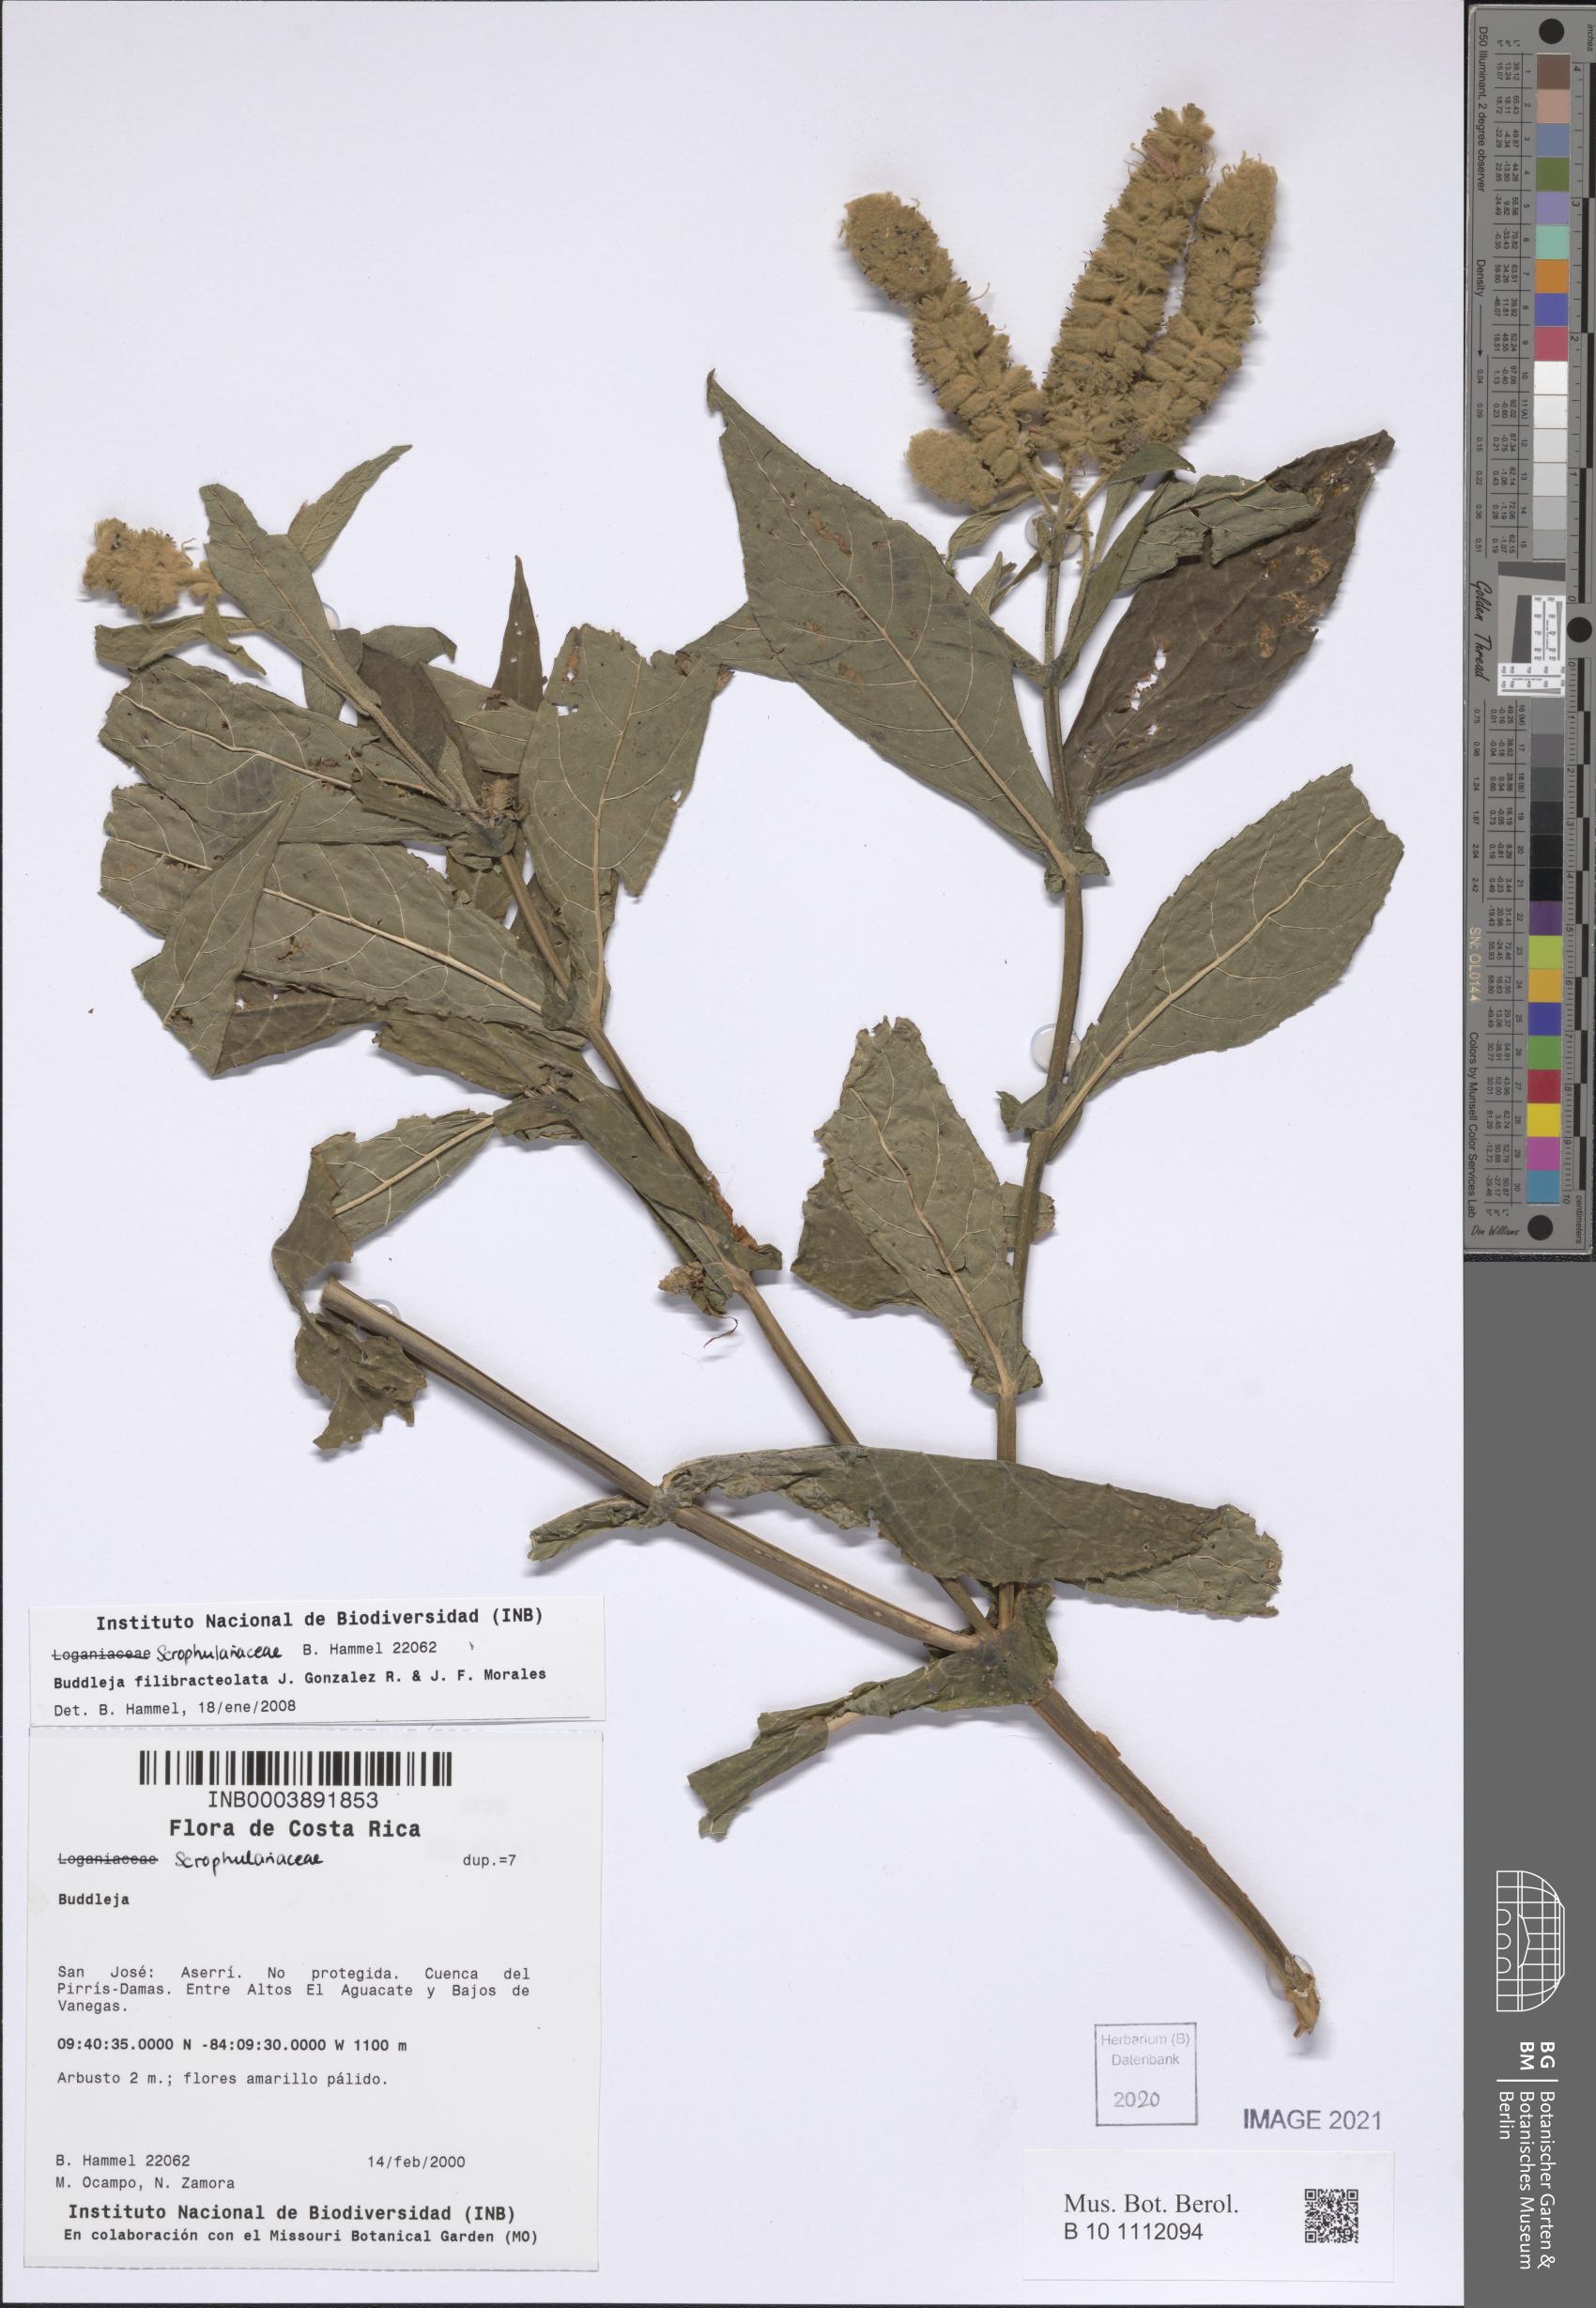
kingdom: Plantae
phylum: Tracheophyta
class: Magnoliopsida
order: Lamiales
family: Scrophulariaceae
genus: Buddleja
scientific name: Buddleja filibracteolata
